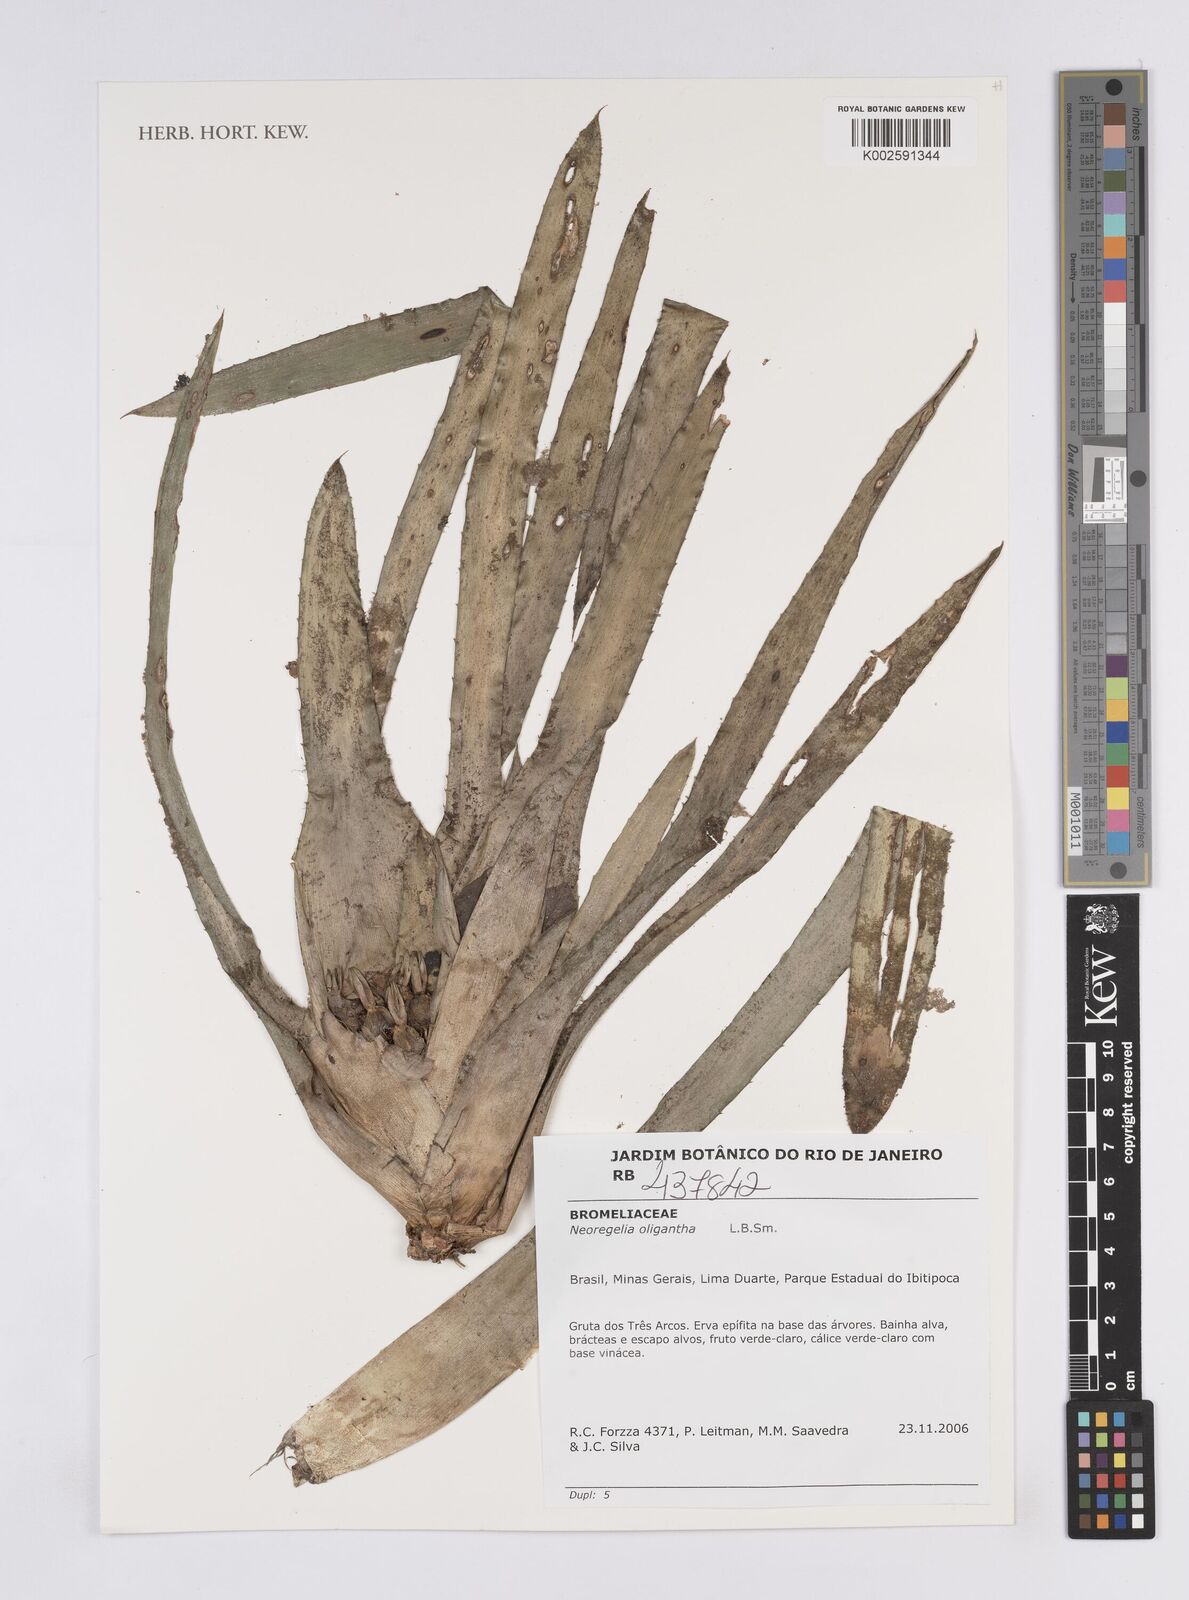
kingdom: Plantae
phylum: Tracheophyta
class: Liliopsida
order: Poales
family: Bromeliaceae
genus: Neoregelia
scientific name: Neoregelia oligantha
